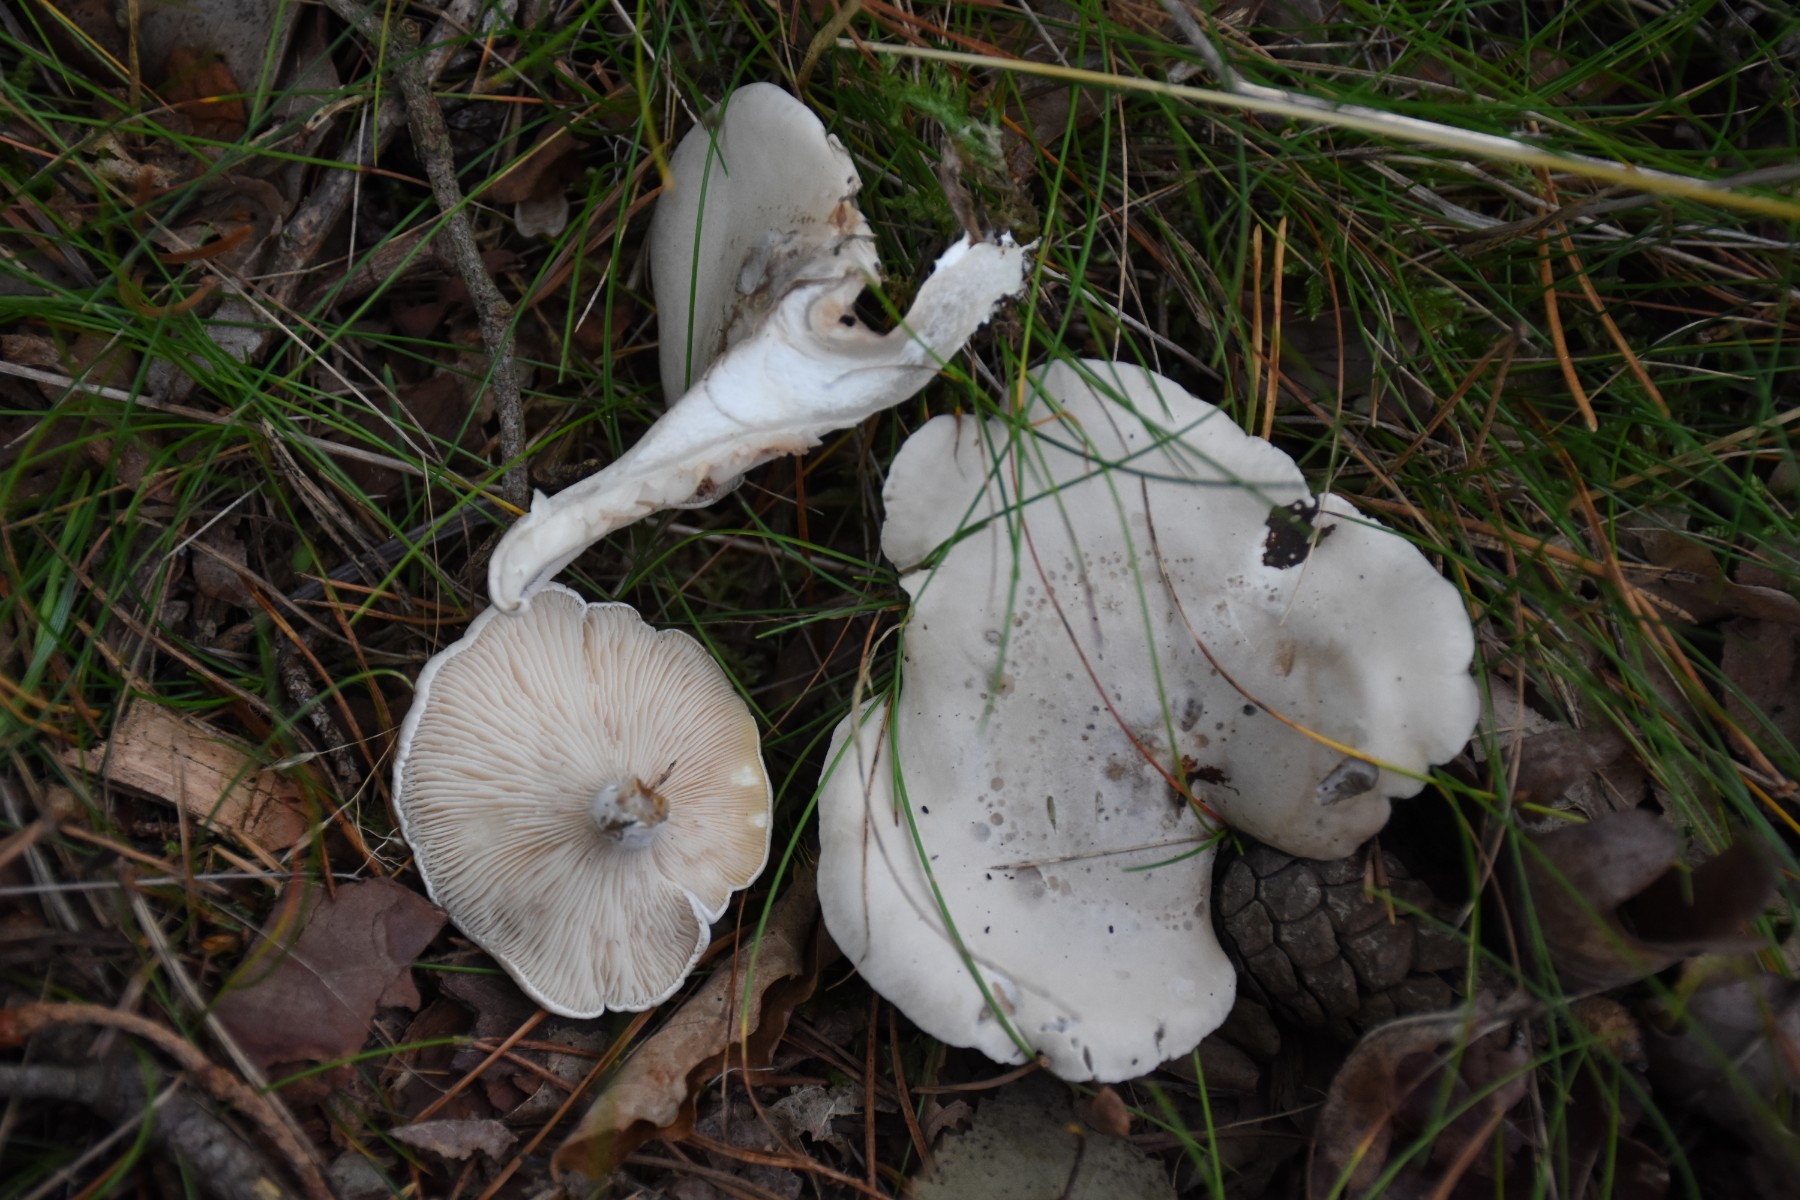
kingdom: Fungi
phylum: Basidiomycota
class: Agaricomycetes
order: Agaricales
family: Entolomataceae
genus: Clitopilus
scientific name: Clitopilus prunulus
